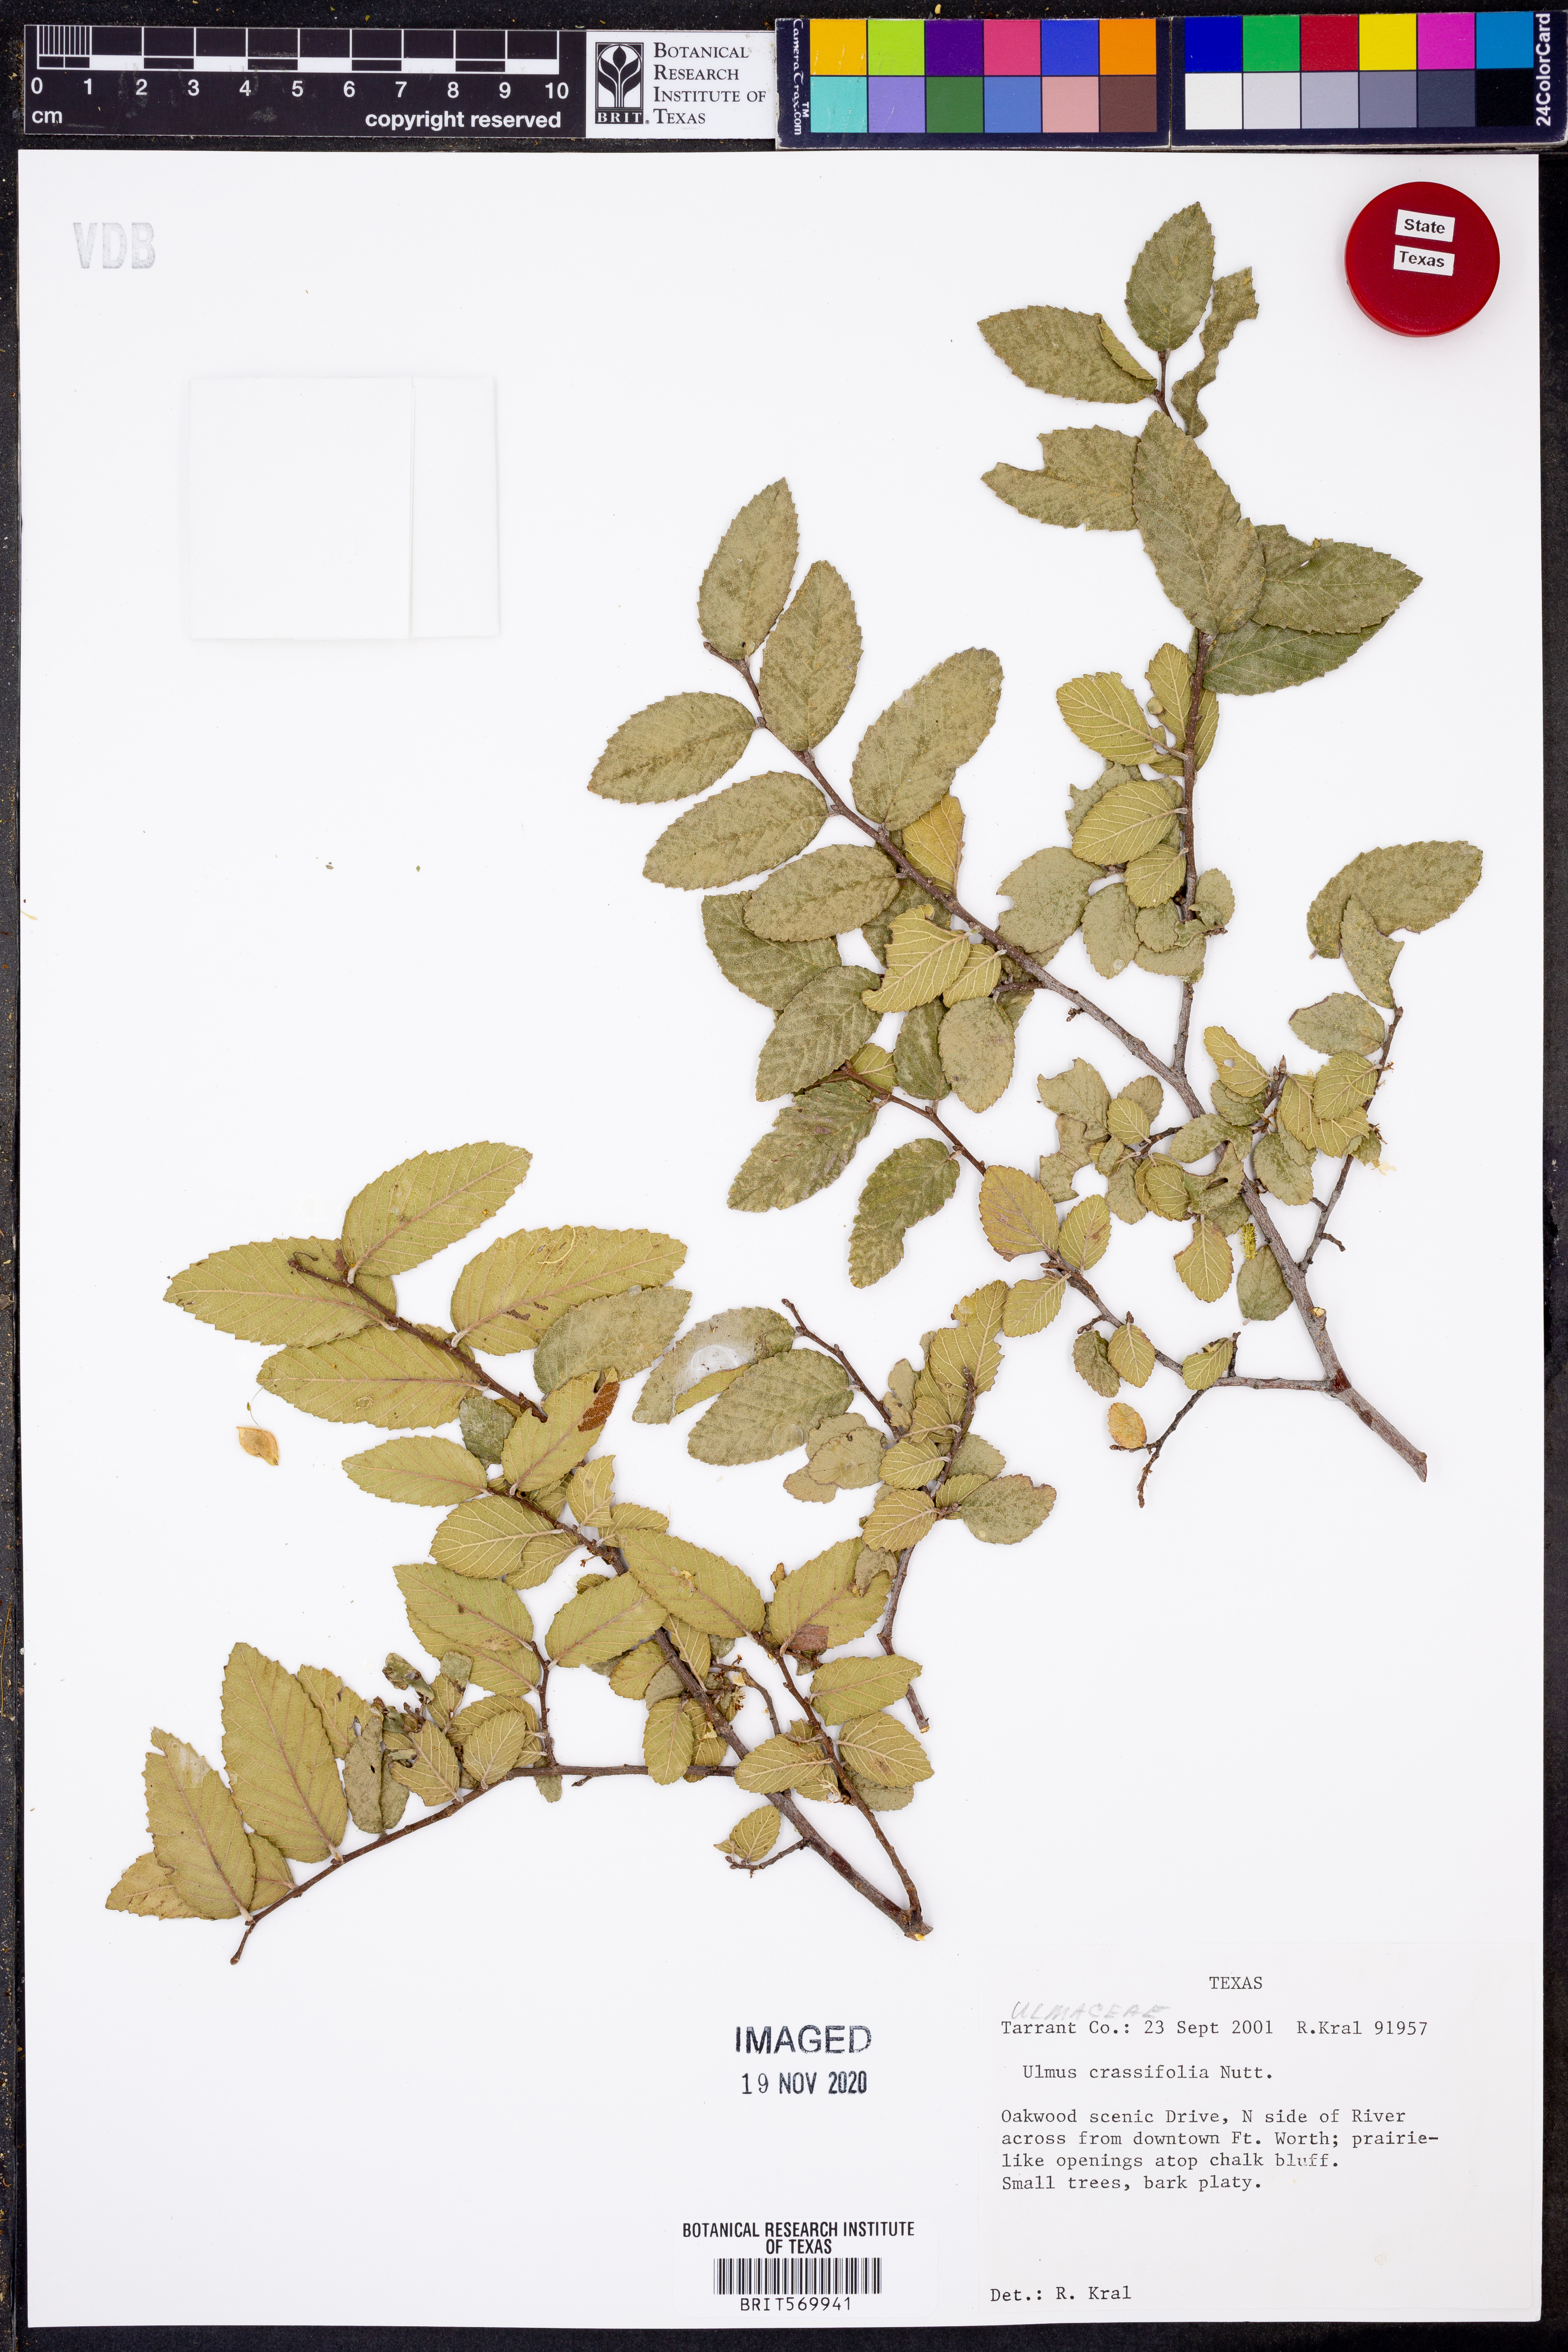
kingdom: Plantae
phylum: Tracheophyta
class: Magnoliopsida
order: Rosales
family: Ulmaceae
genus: Ulmus
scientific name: Ulmus crassifolia
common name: Basket elm
